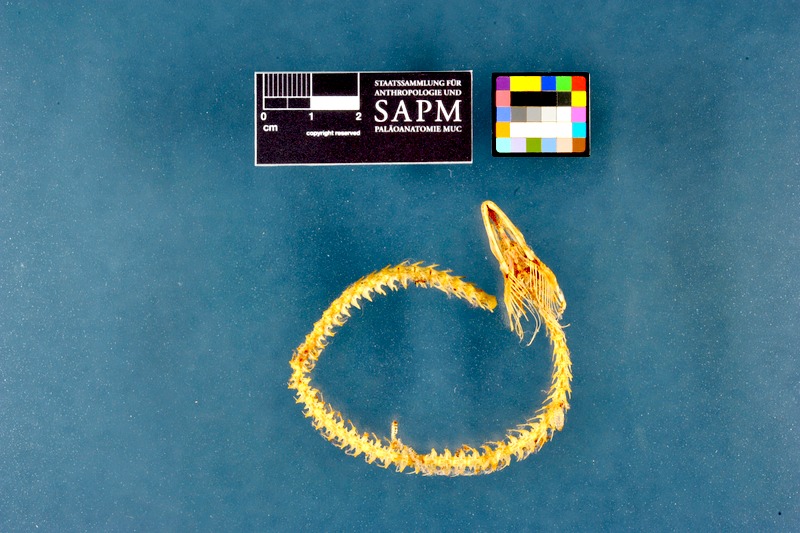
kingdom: Animalia
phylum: Chordata
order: Anguilliformes
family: Anguillidae
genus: Anguilla
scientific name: Anguilla anguilla
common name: European eel
